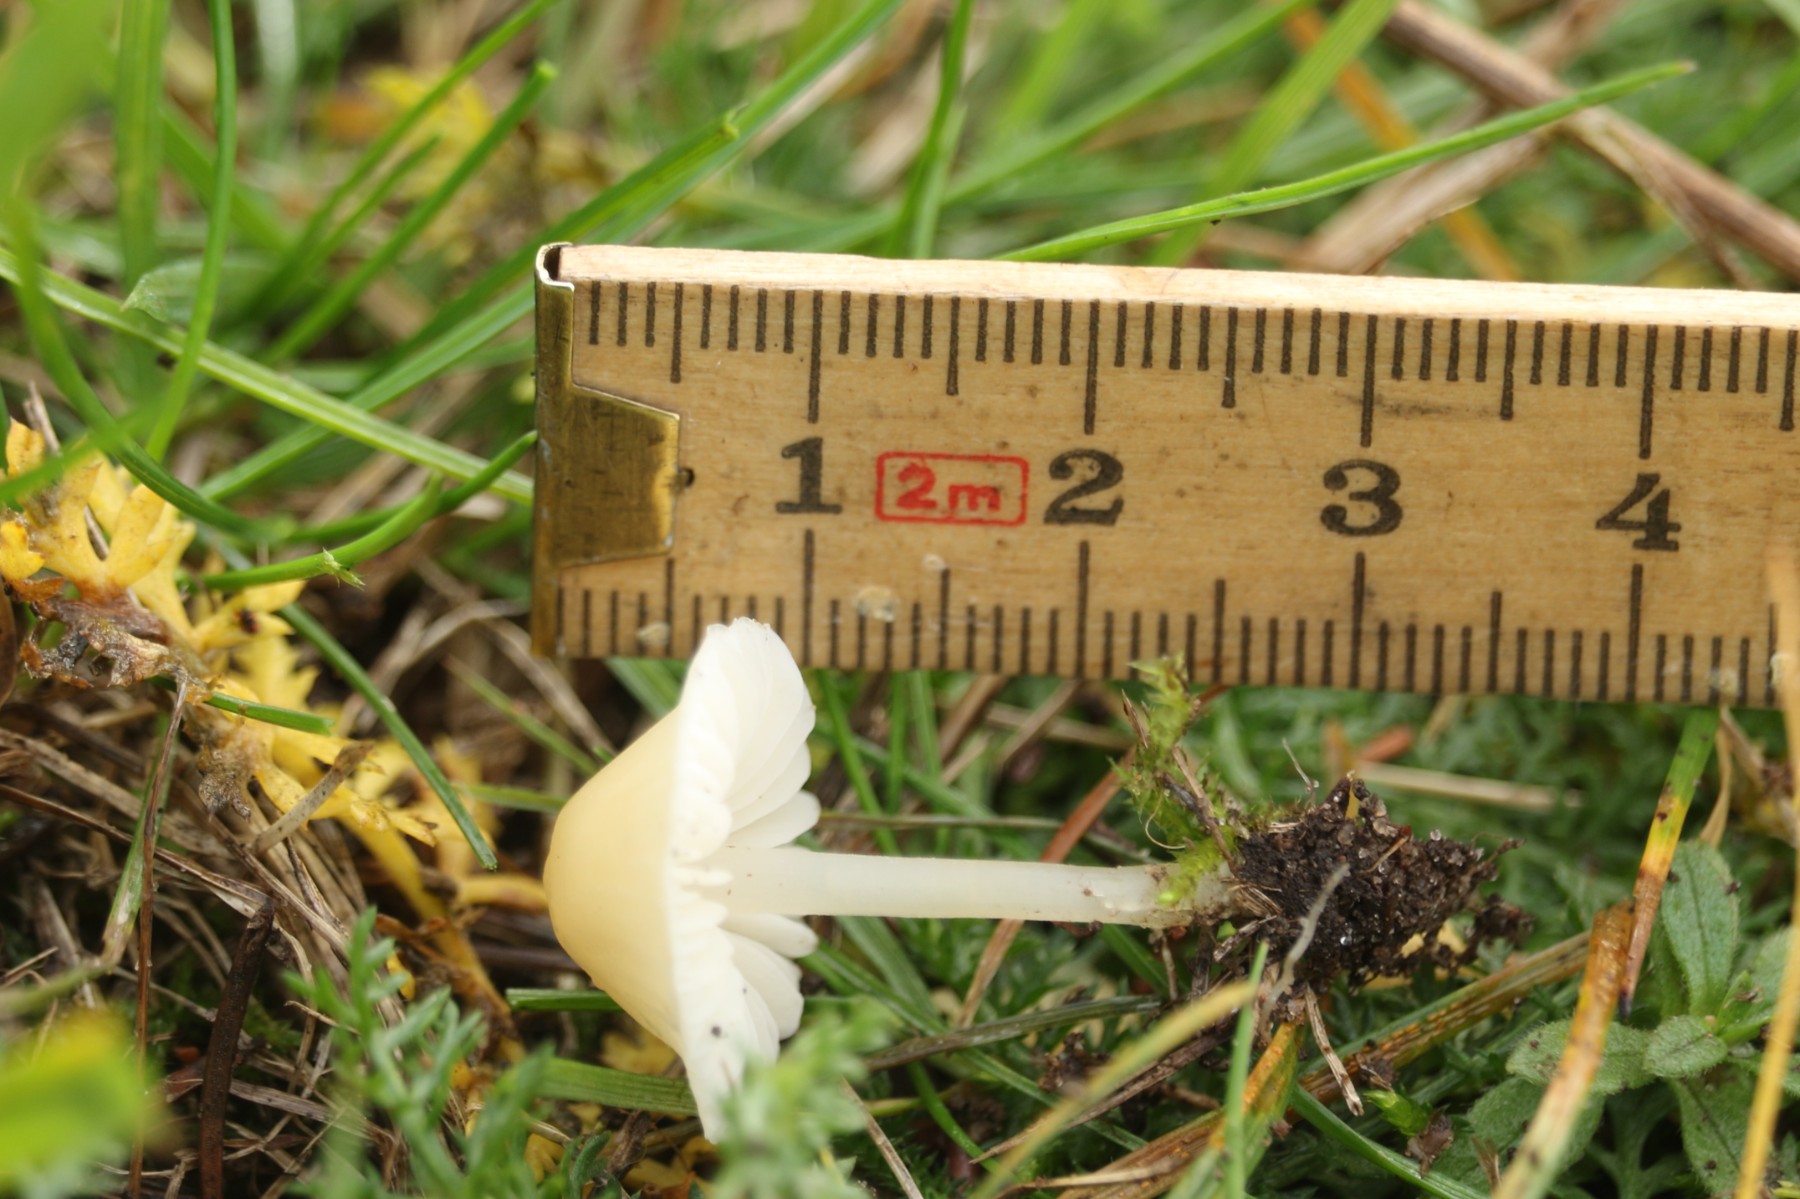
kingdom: Fungi
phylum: Basidiomycota
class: Agaricomycetes
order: Agaricales
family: Mycenaceae
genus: Atheniella
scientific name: Atheniella flavoalba
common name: gulhvid huesvamp
